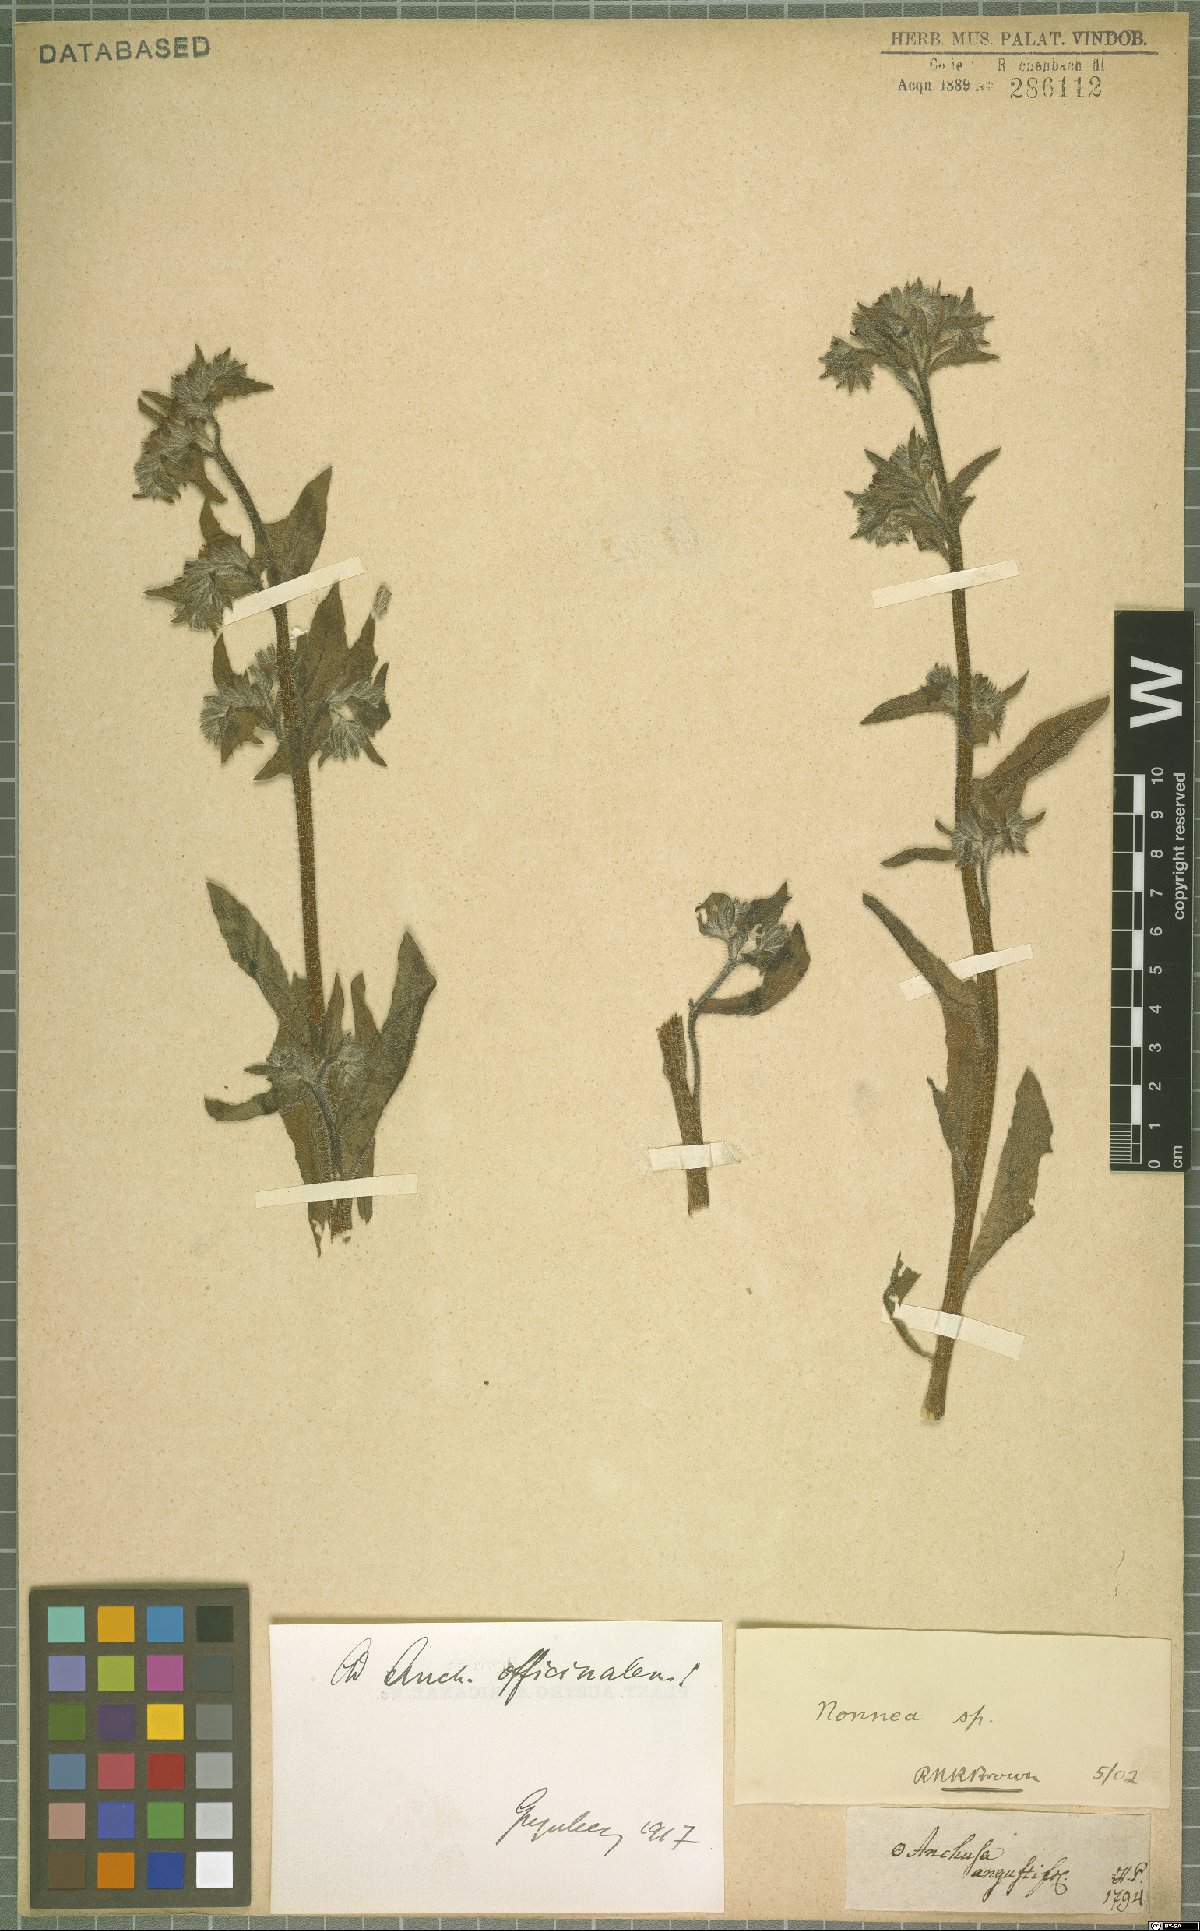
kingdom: Plantae
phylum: Tracheophyta
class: Magnoliopsida
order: Boraginales
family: Boraginaceae
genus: Anchusa
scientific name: Anchusa officinalis
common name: Alkanet
